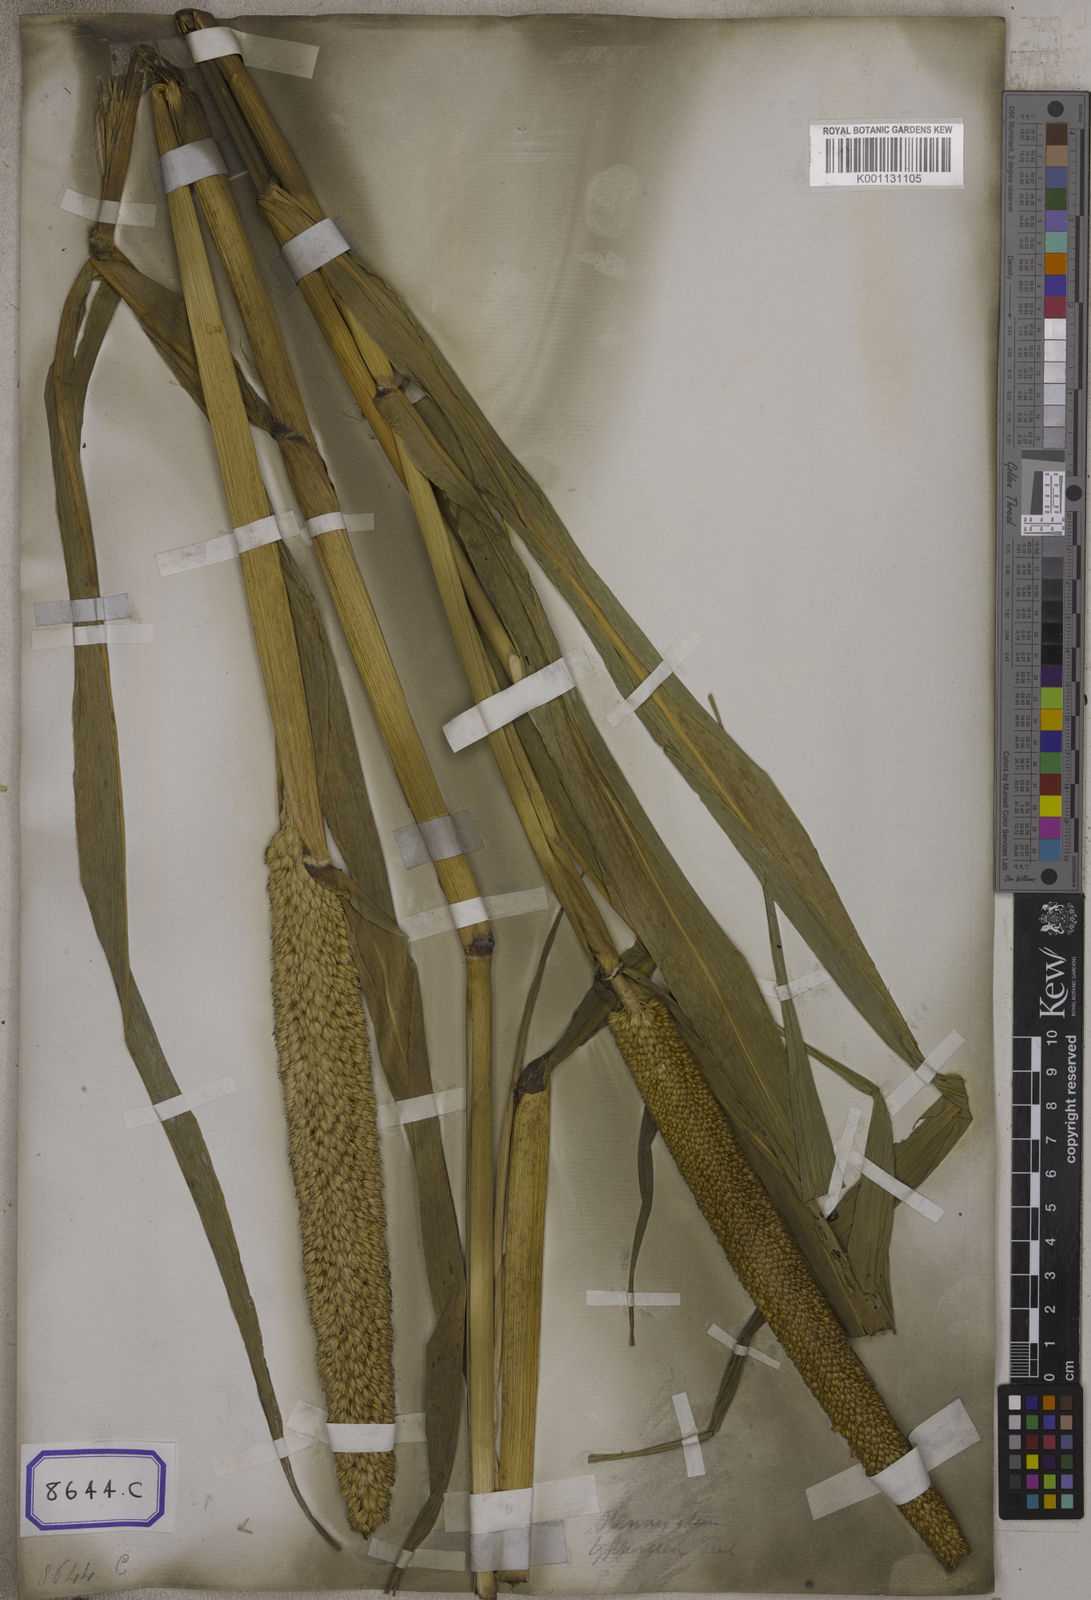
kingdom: Plantae
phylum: Tracheophyta
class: Liliopsida
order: Poales
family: Poaceae
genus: Cenchrus
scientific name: Cenchrus americanus
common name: Pearl millet
